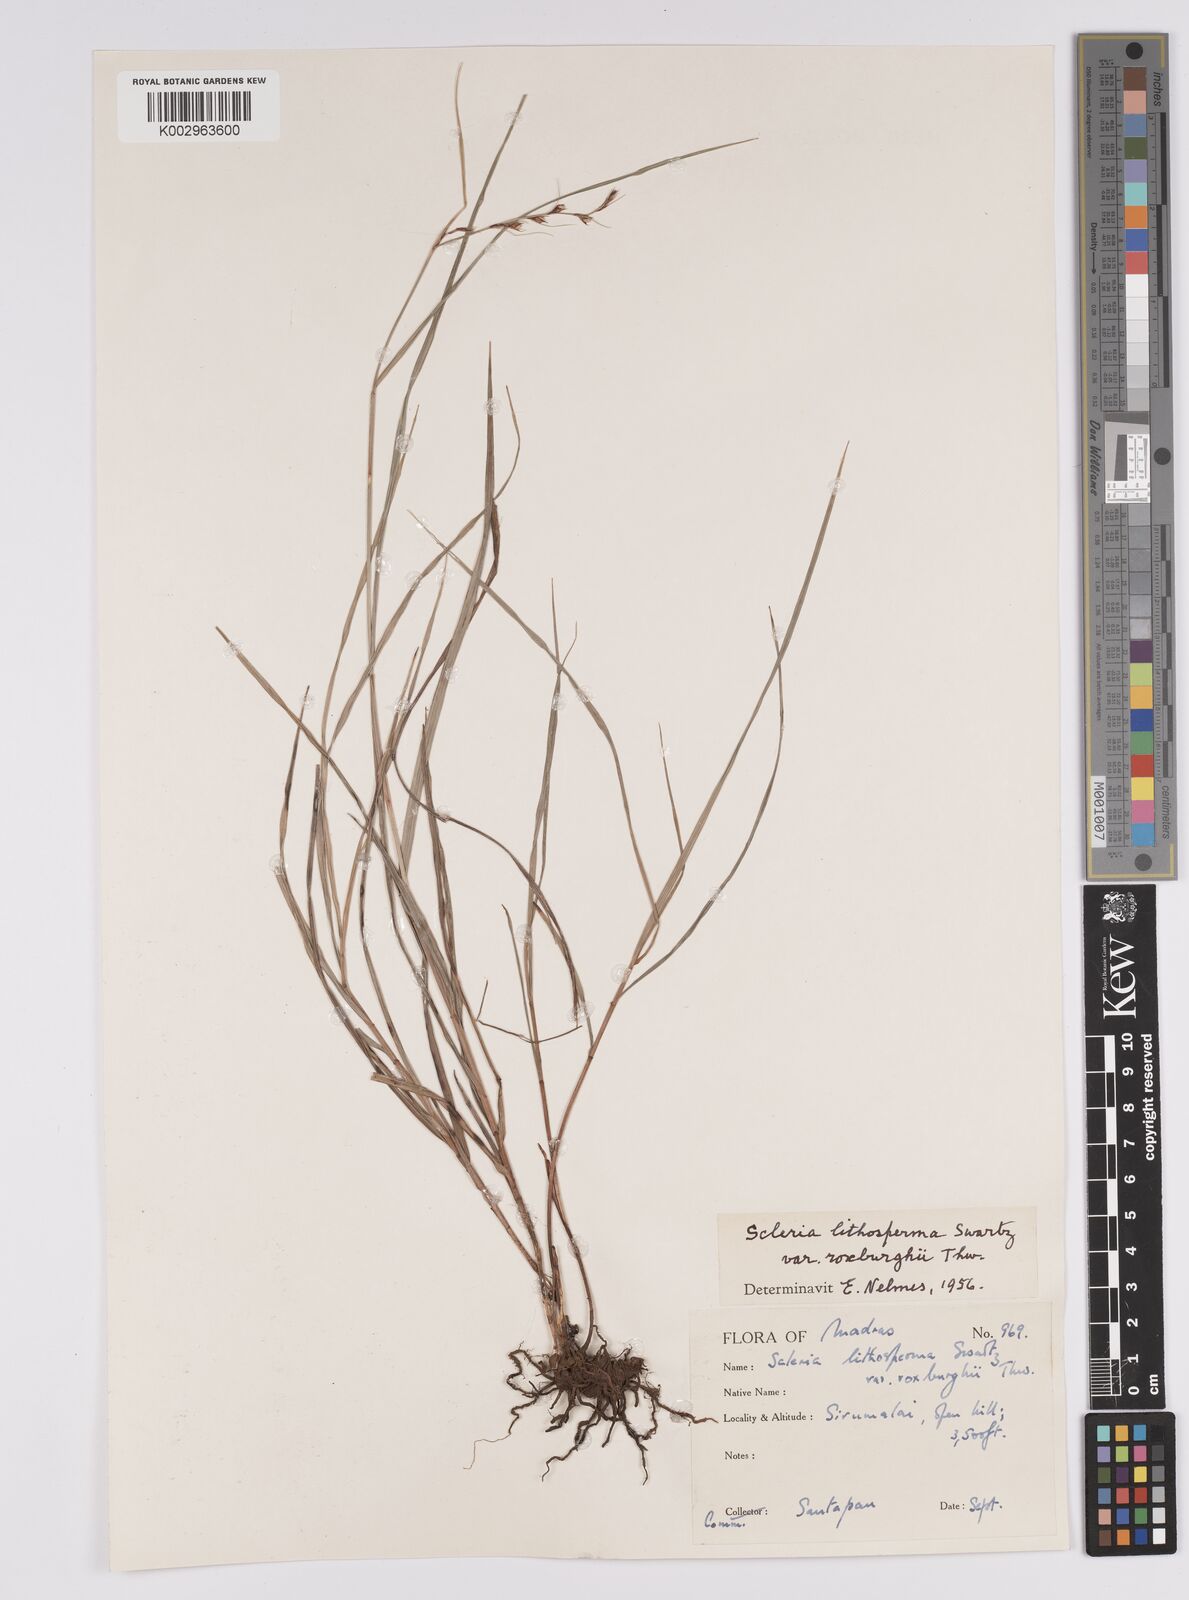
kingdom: Plantae
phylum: Tracheophyta
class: Liliopsida
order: Poales
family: Cyperaceae
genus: Scleria
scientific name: Scleria lithosperma
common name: Florida keys nut-rush
